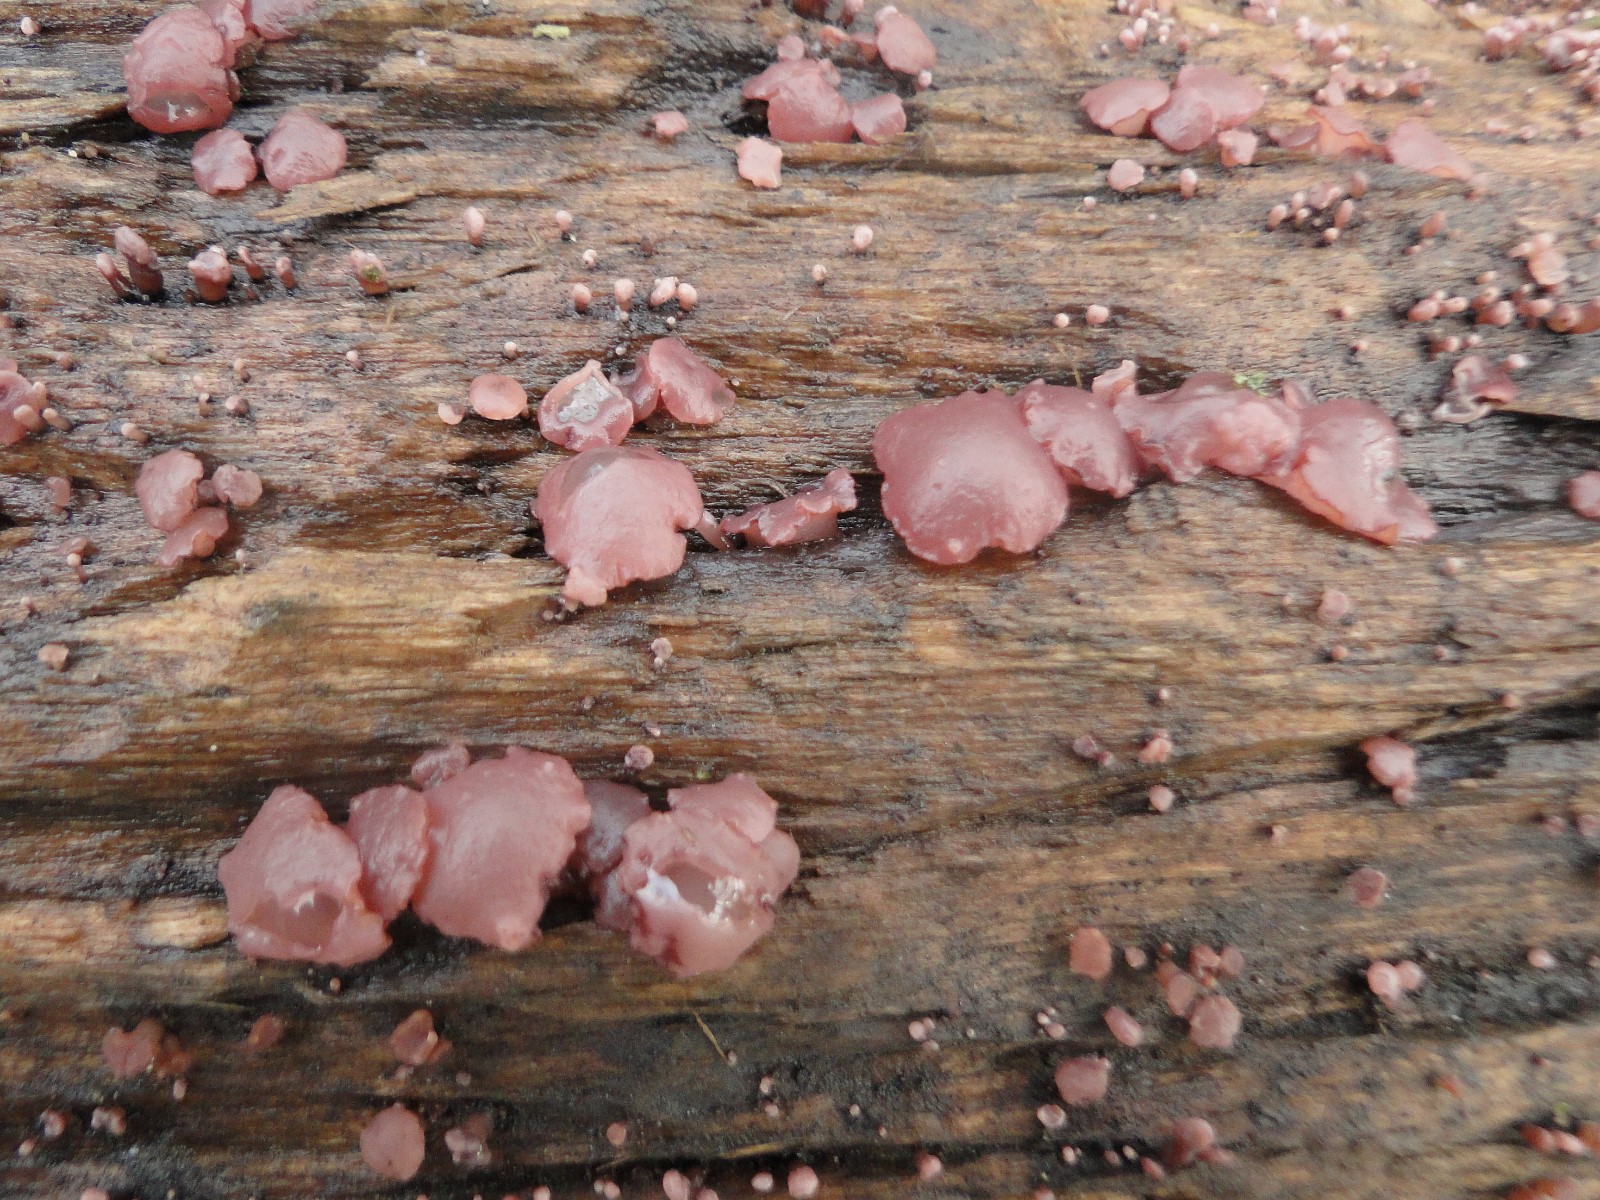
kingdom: Fungi
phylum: Ascomycota
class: Leotiomycetes
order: Helotiales
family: Gelatinodiscaceae
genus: Ascocoryne
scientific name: Ascocoryne sarcoides
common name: rødlilla sejskive
